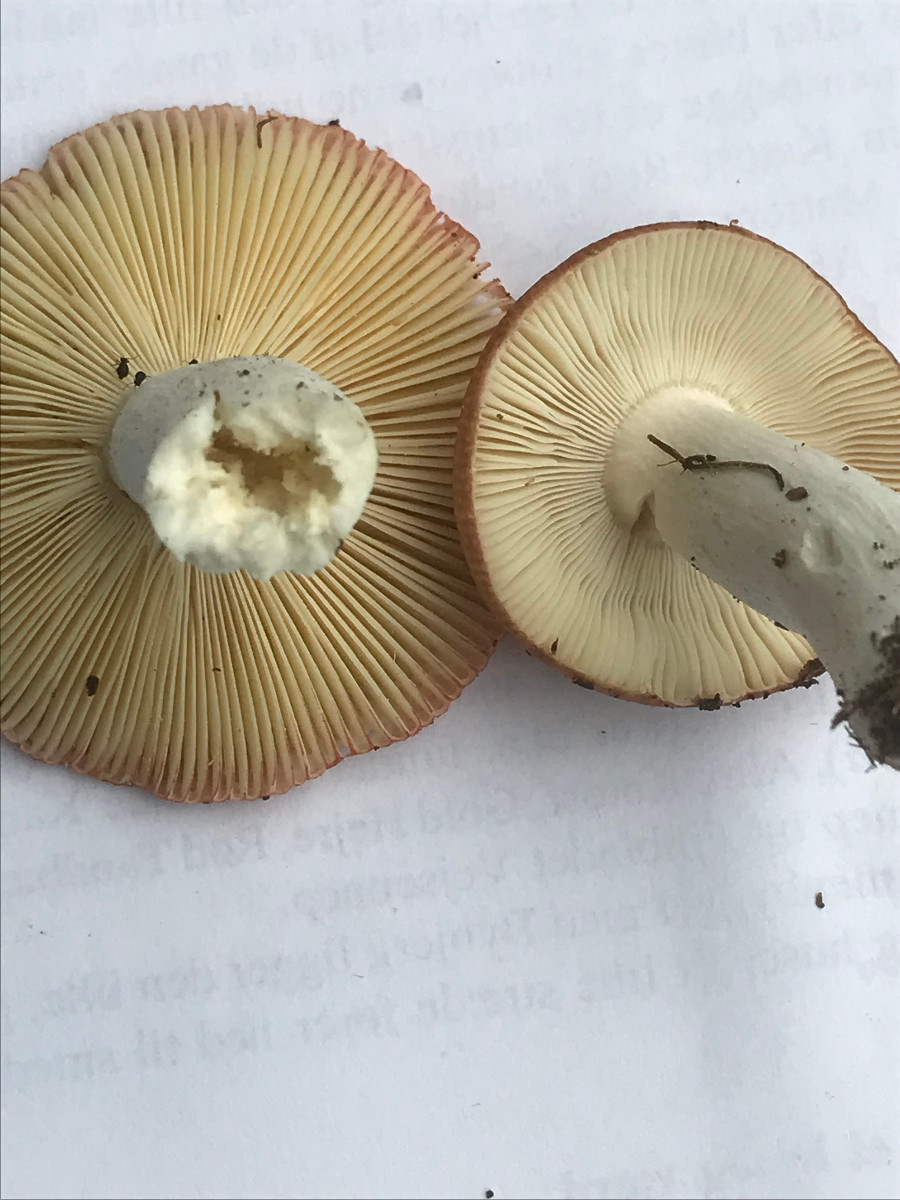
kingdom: Fungi
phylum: Basidiomycota
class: Agaricomycetes
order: Russulales
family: Russulaceae
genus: Russula
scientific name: Russula velenovskyi
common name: orangerød skørhat
